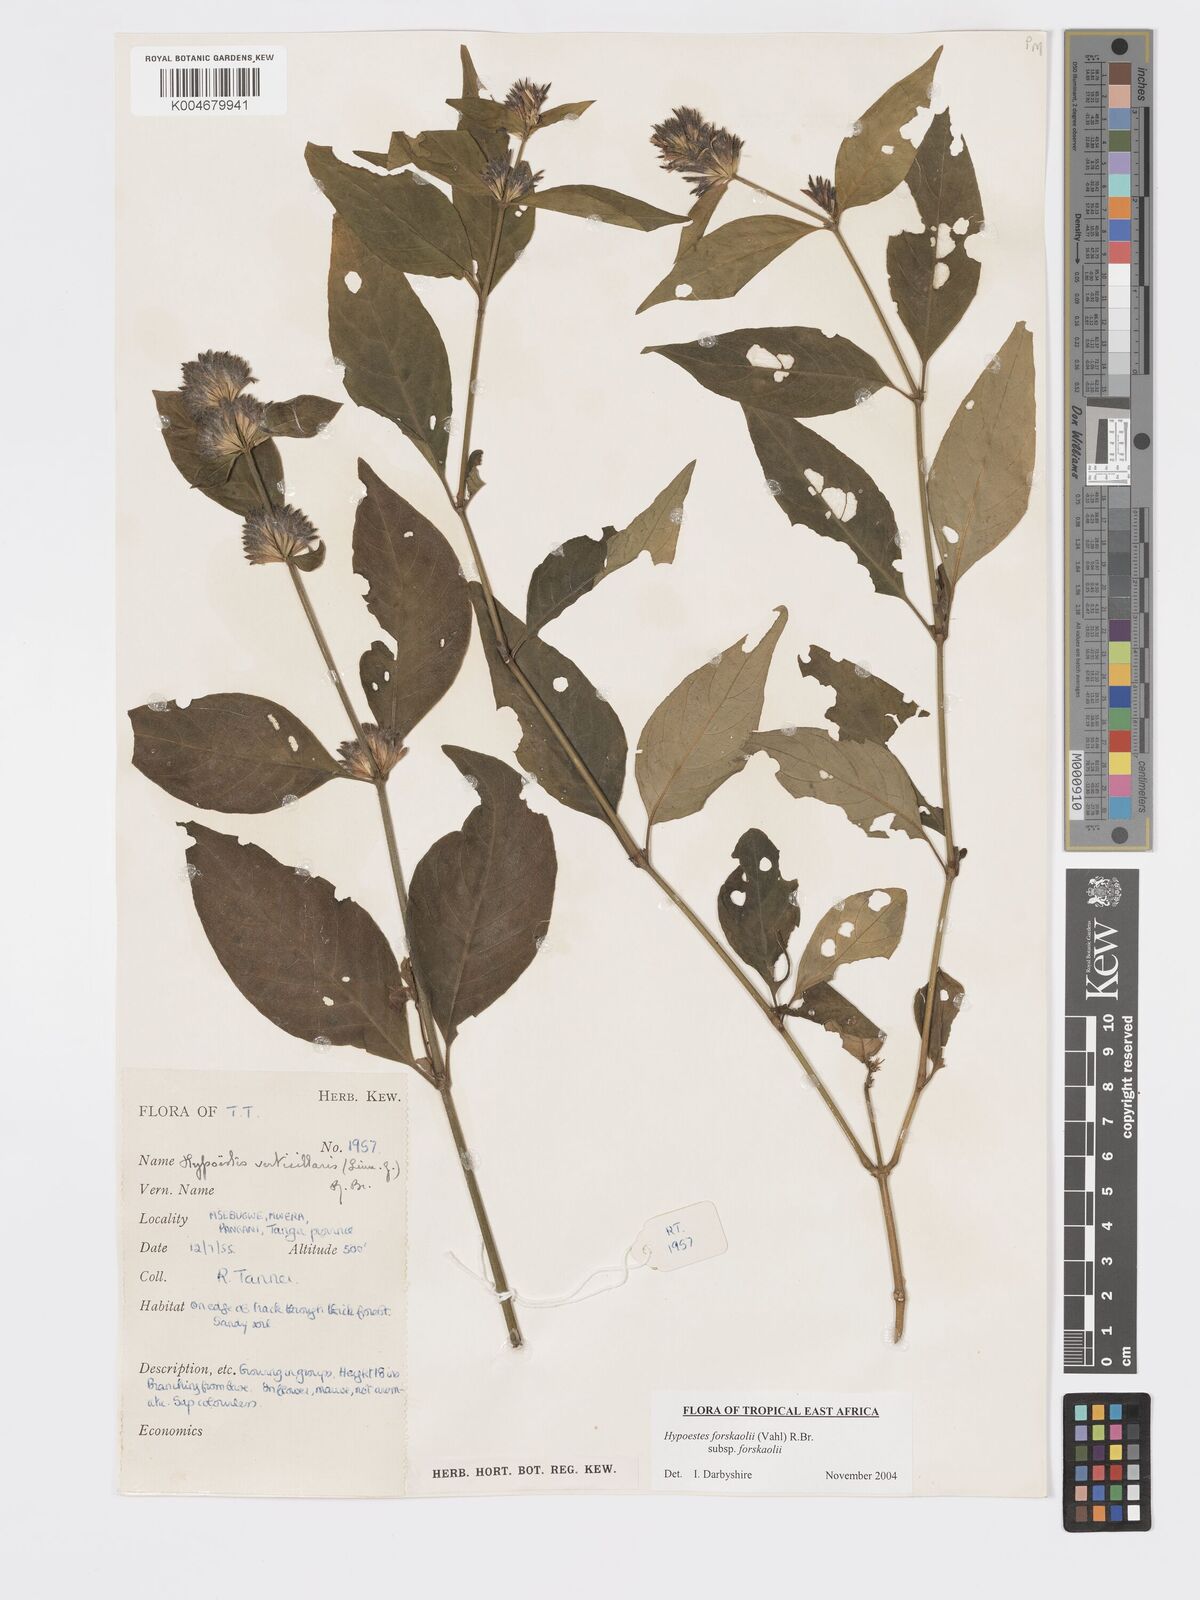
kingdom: Plantae
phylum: Tracheophyta
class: Magnoliopsida
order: Lamiales
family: Acanthaceae
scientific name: Acanthaceae
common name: Acanthaceae
